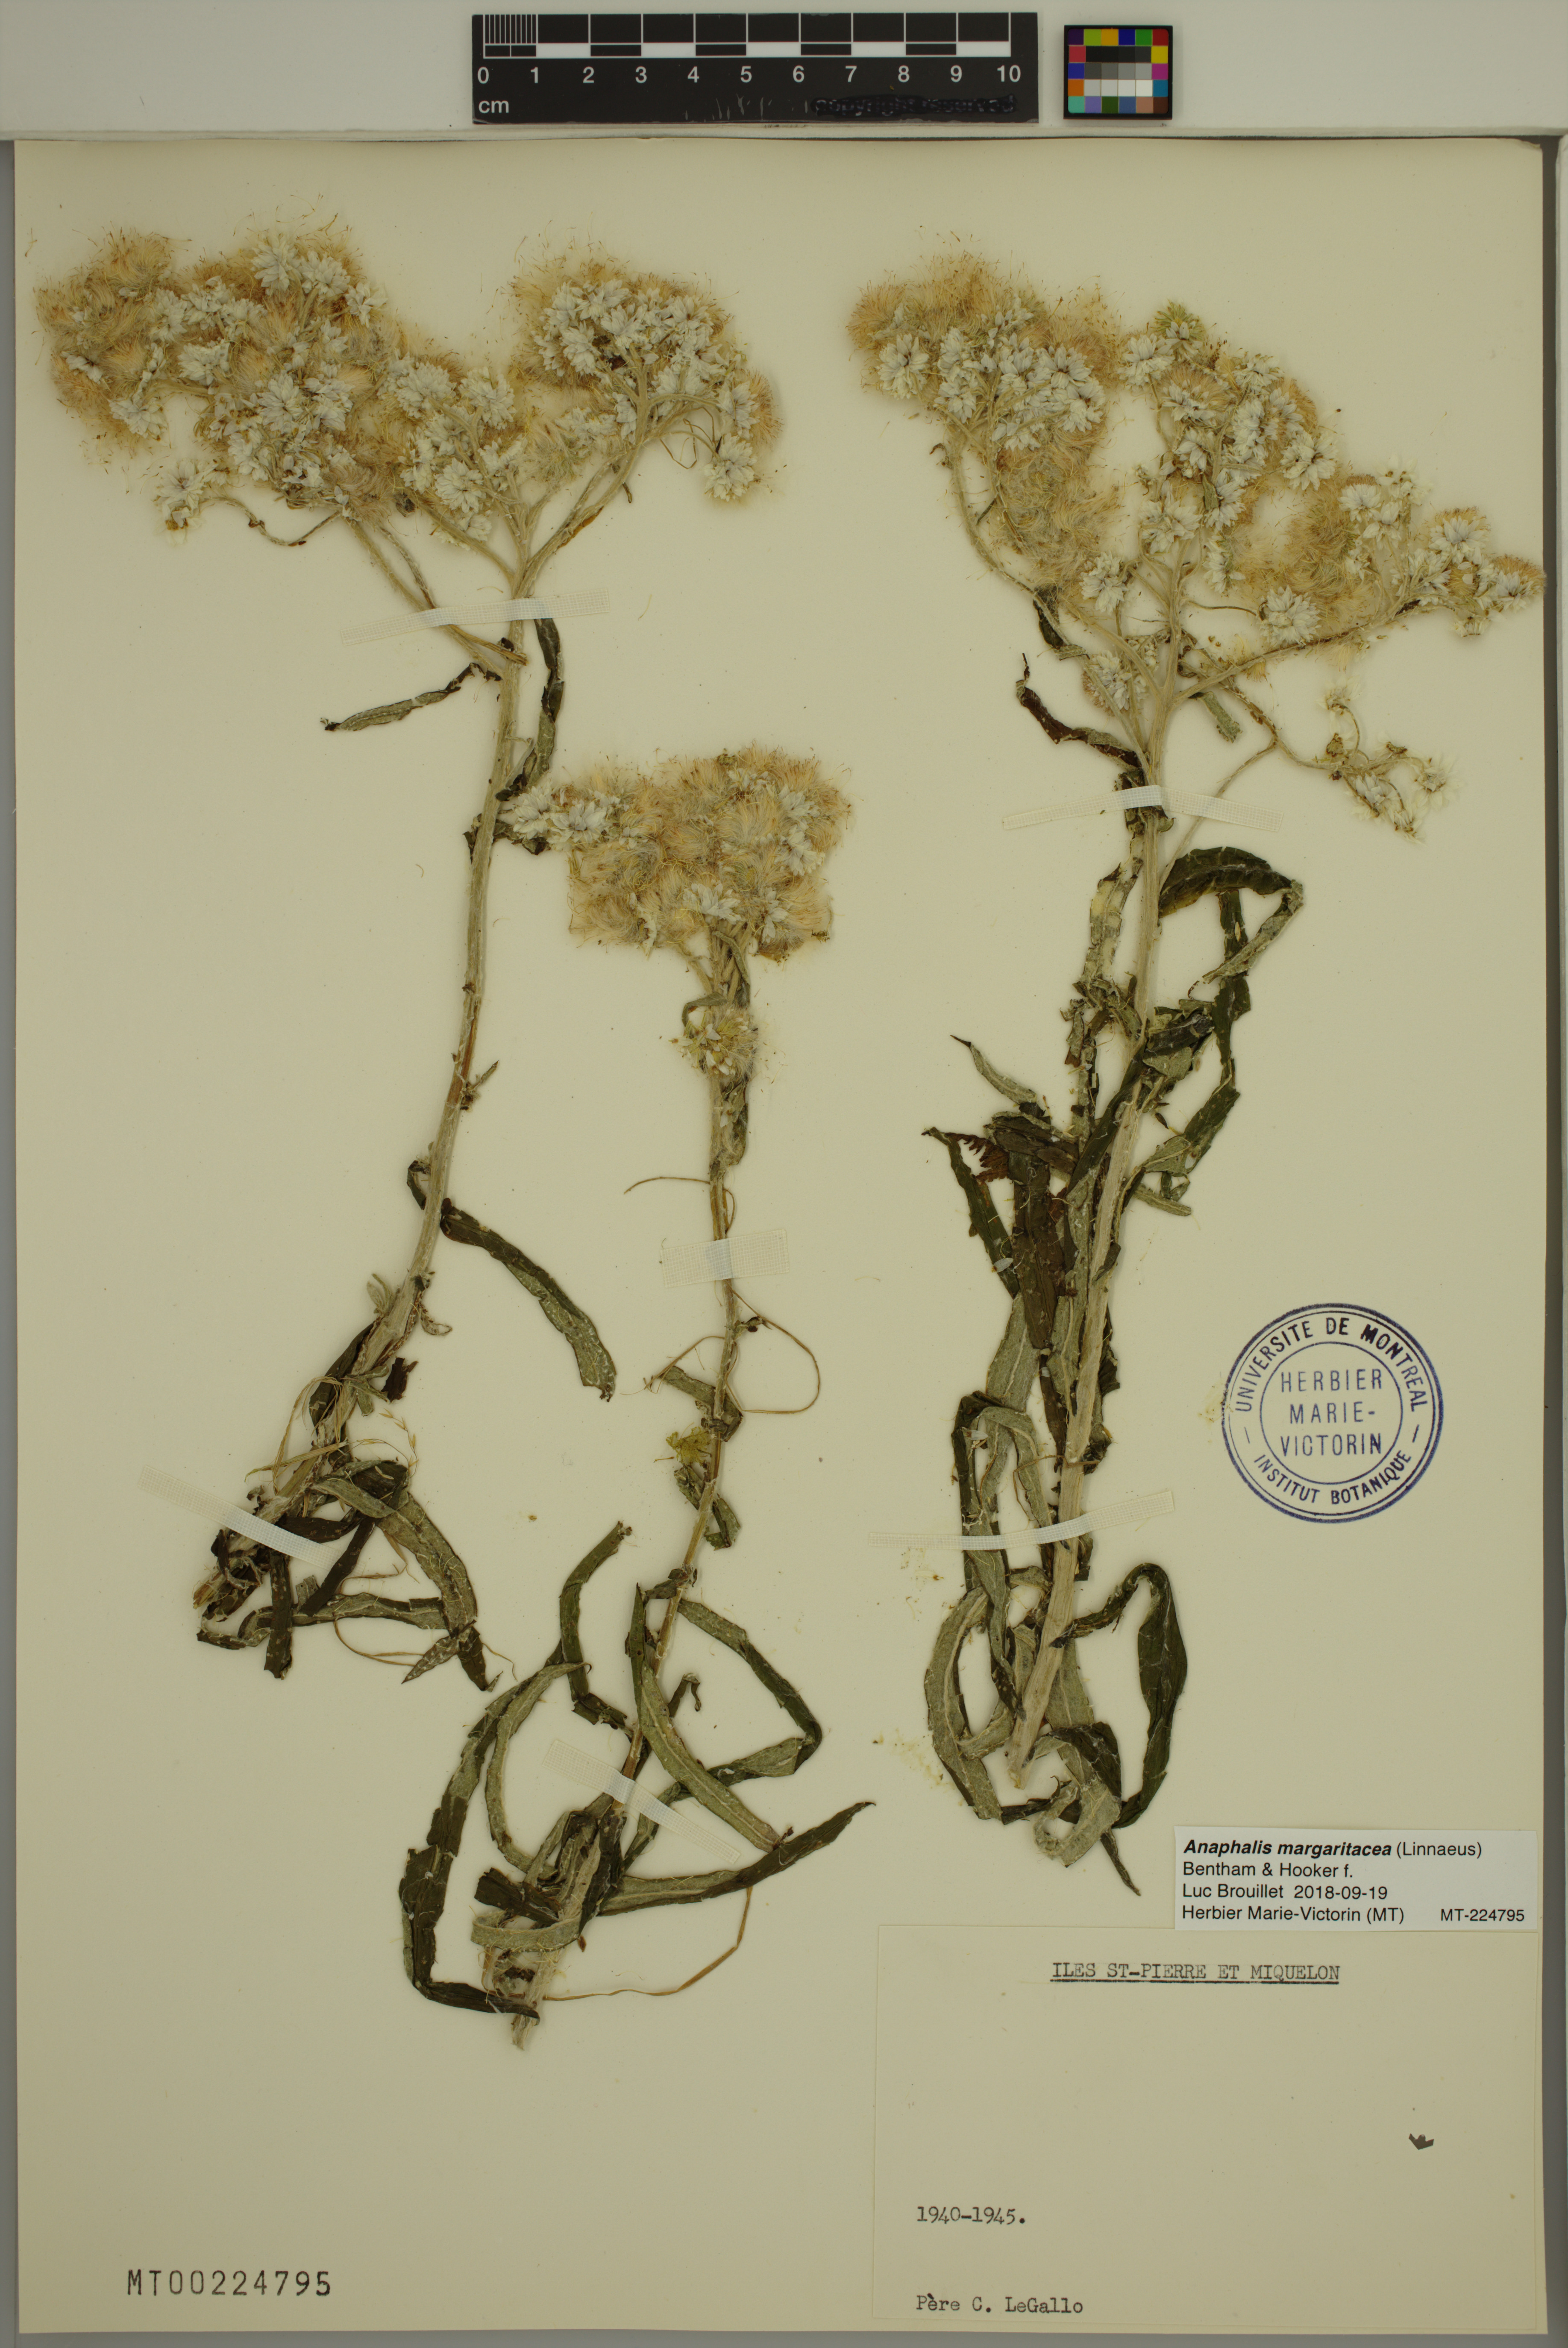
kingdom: Plantae
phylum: Tracheophyta
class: Magnoliopsida
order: Asterales
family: Asteraceae
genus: Anaphalis
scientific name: Anaphalis margaritacea
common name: Pearly everlasting
